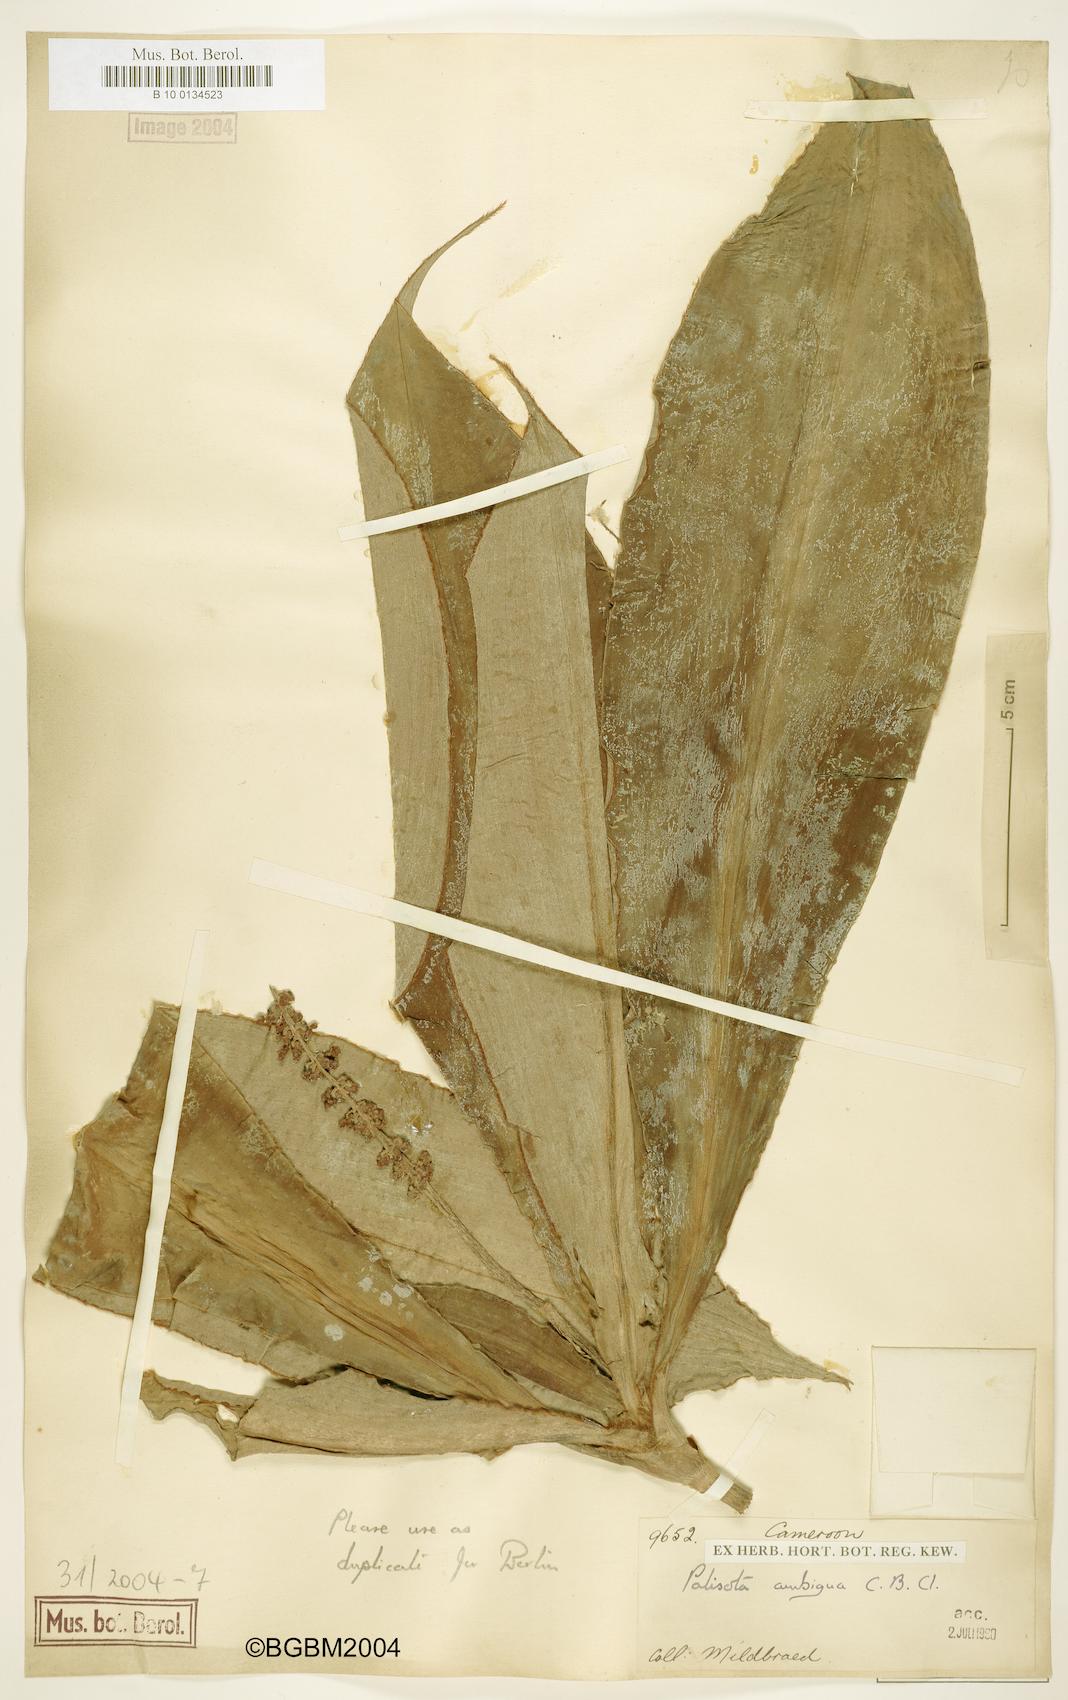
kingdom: Plantae
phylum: Tracheophyta
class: Liliopsida
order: Commelinales
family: Commelinaceae
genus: Palisota
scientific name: Palisota ambigua
